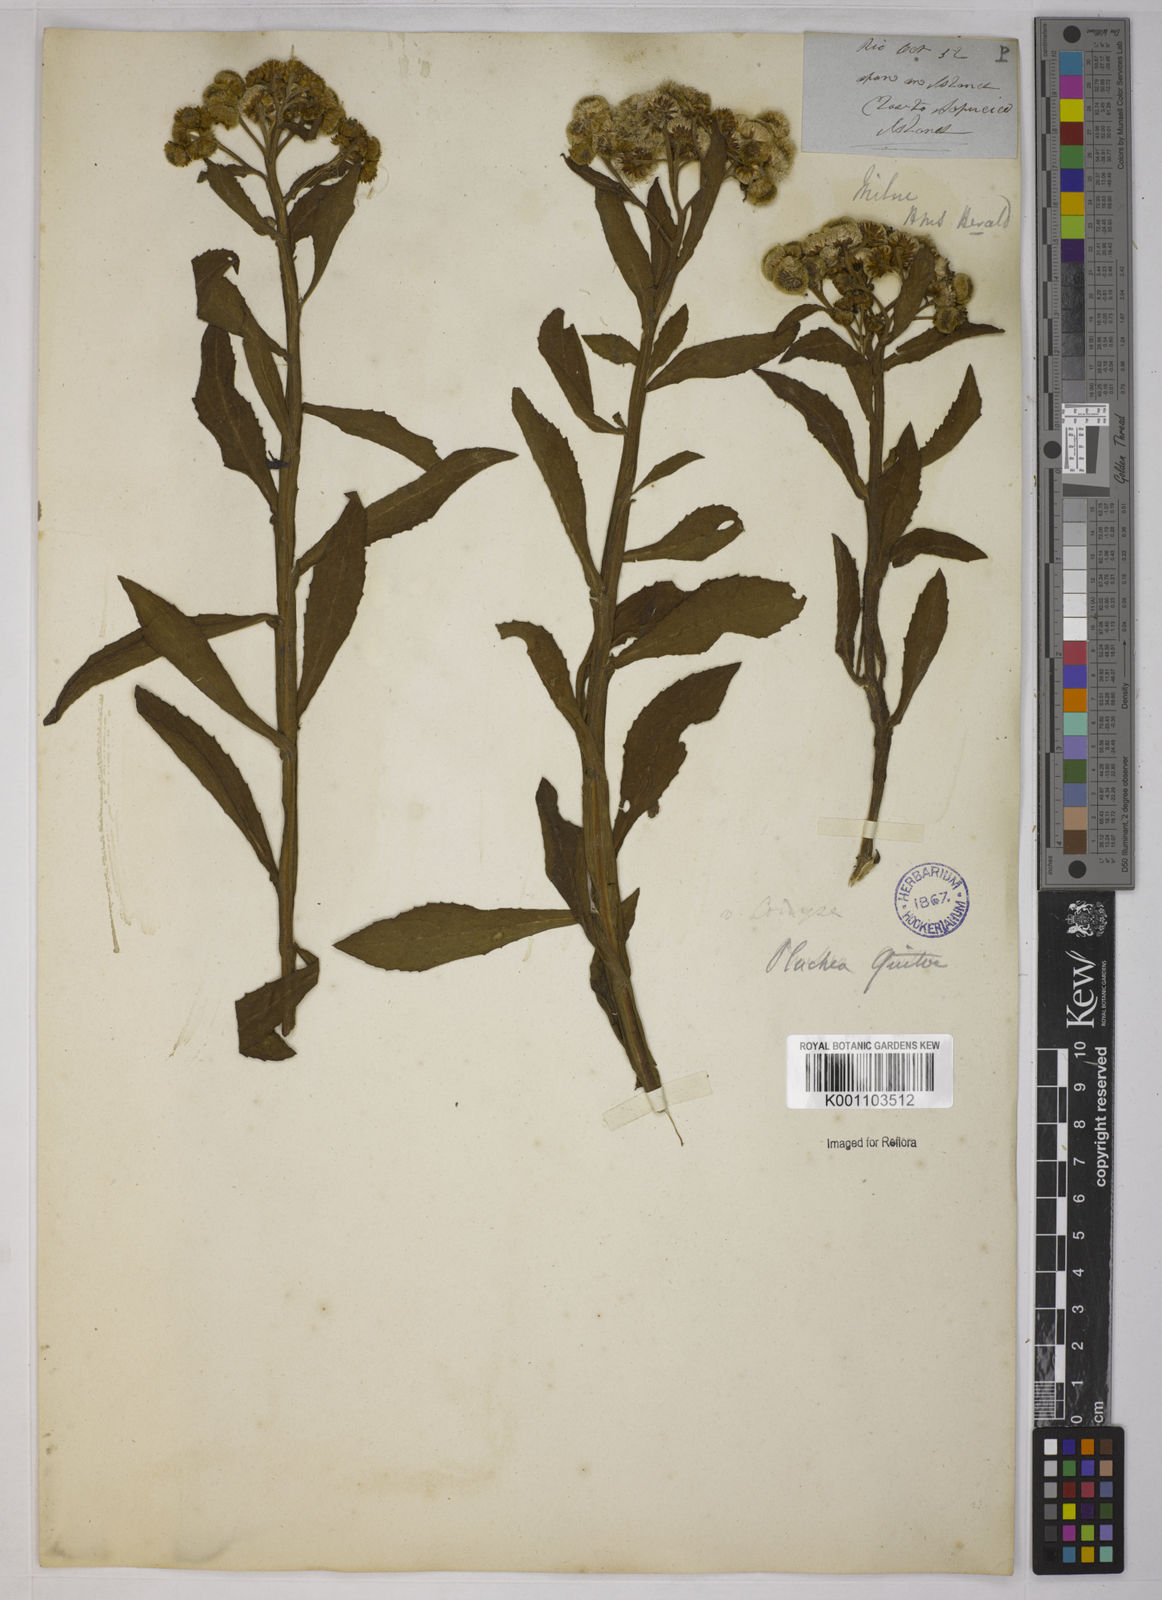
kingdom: Plantae
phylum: Tracheophyta
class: Magnoliopsida
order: Asterales
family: Asteraceae
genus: Pluchea
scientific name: Pluchea sagittalis
